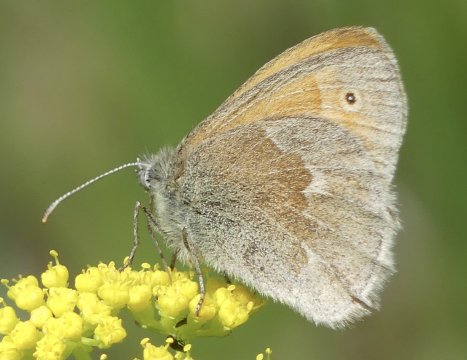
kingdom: Animalia
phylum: Arthropoda
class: Insecta
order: Lepidoptera
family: Nymphalidae
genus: Coenonympha
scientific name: Coenonympha tullia
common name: Large Heath
